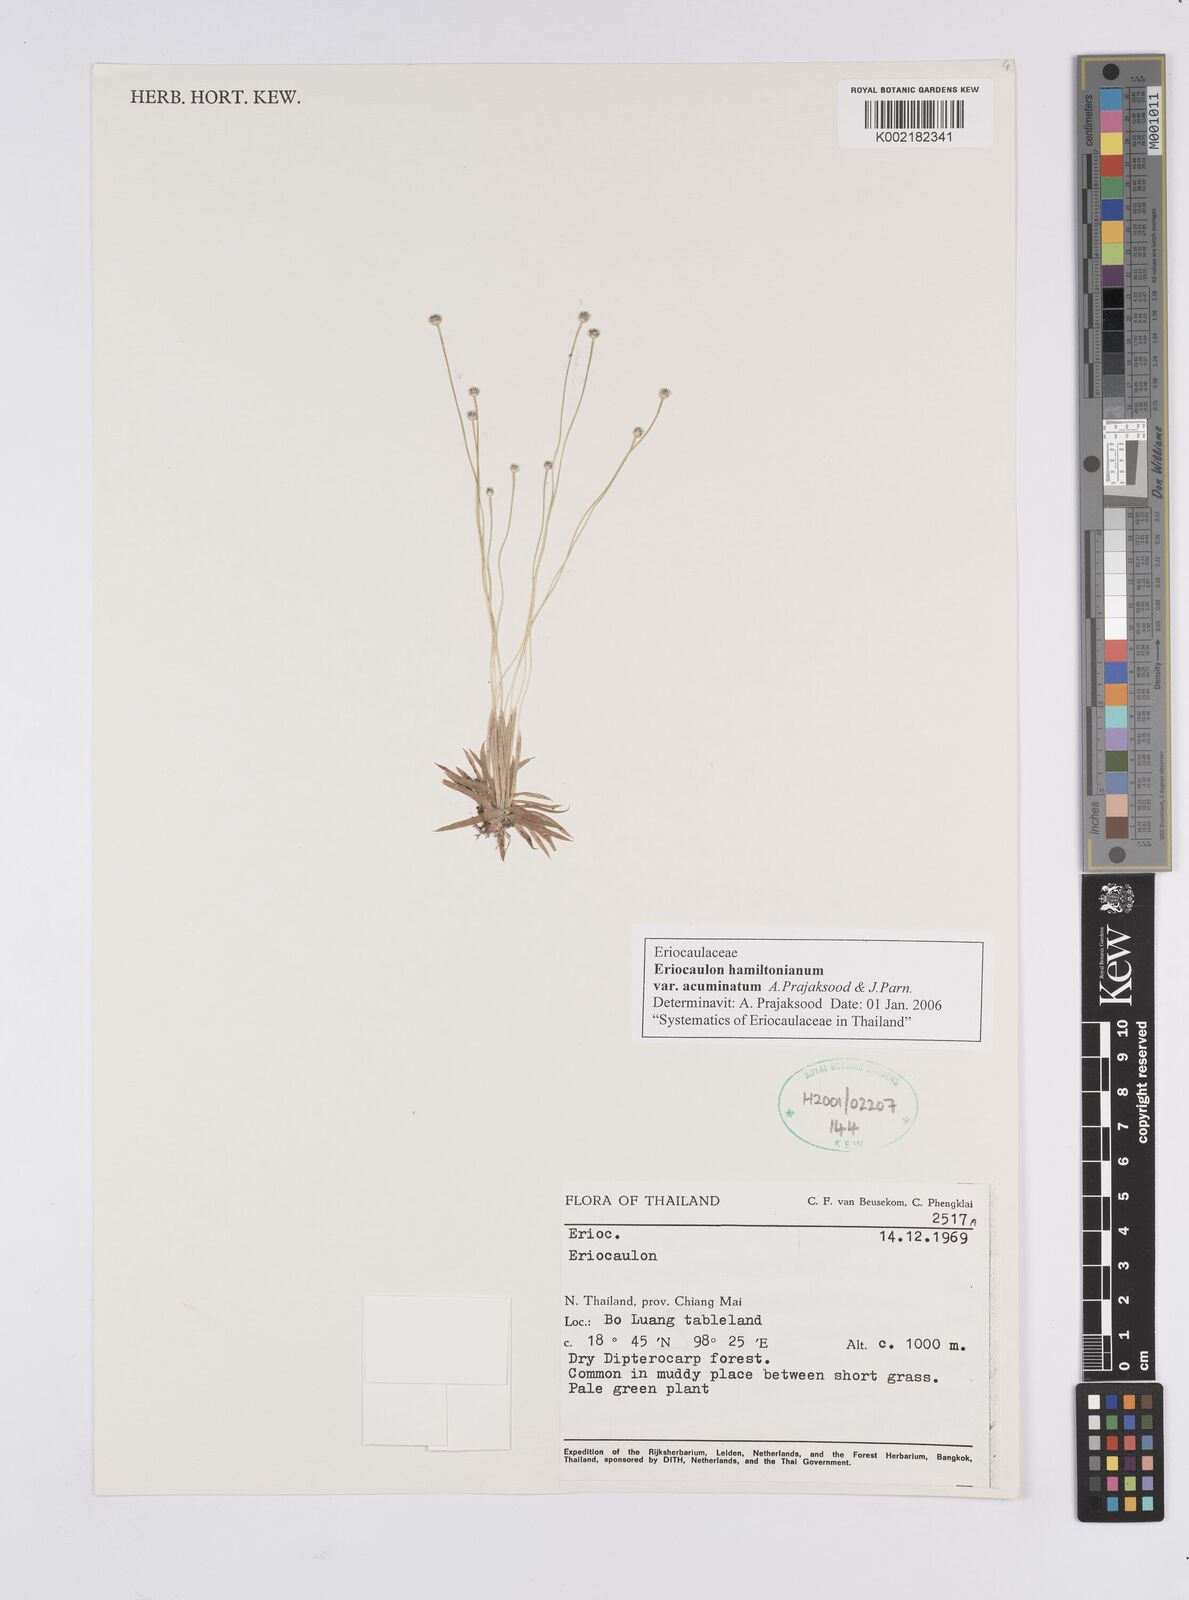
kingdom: Plantae
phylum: Tracheophyta
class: Liliopsida
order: Poales
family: Eriocaulaceae
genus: Eriocaulon
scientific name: Eriocaulon hamiltonianum
